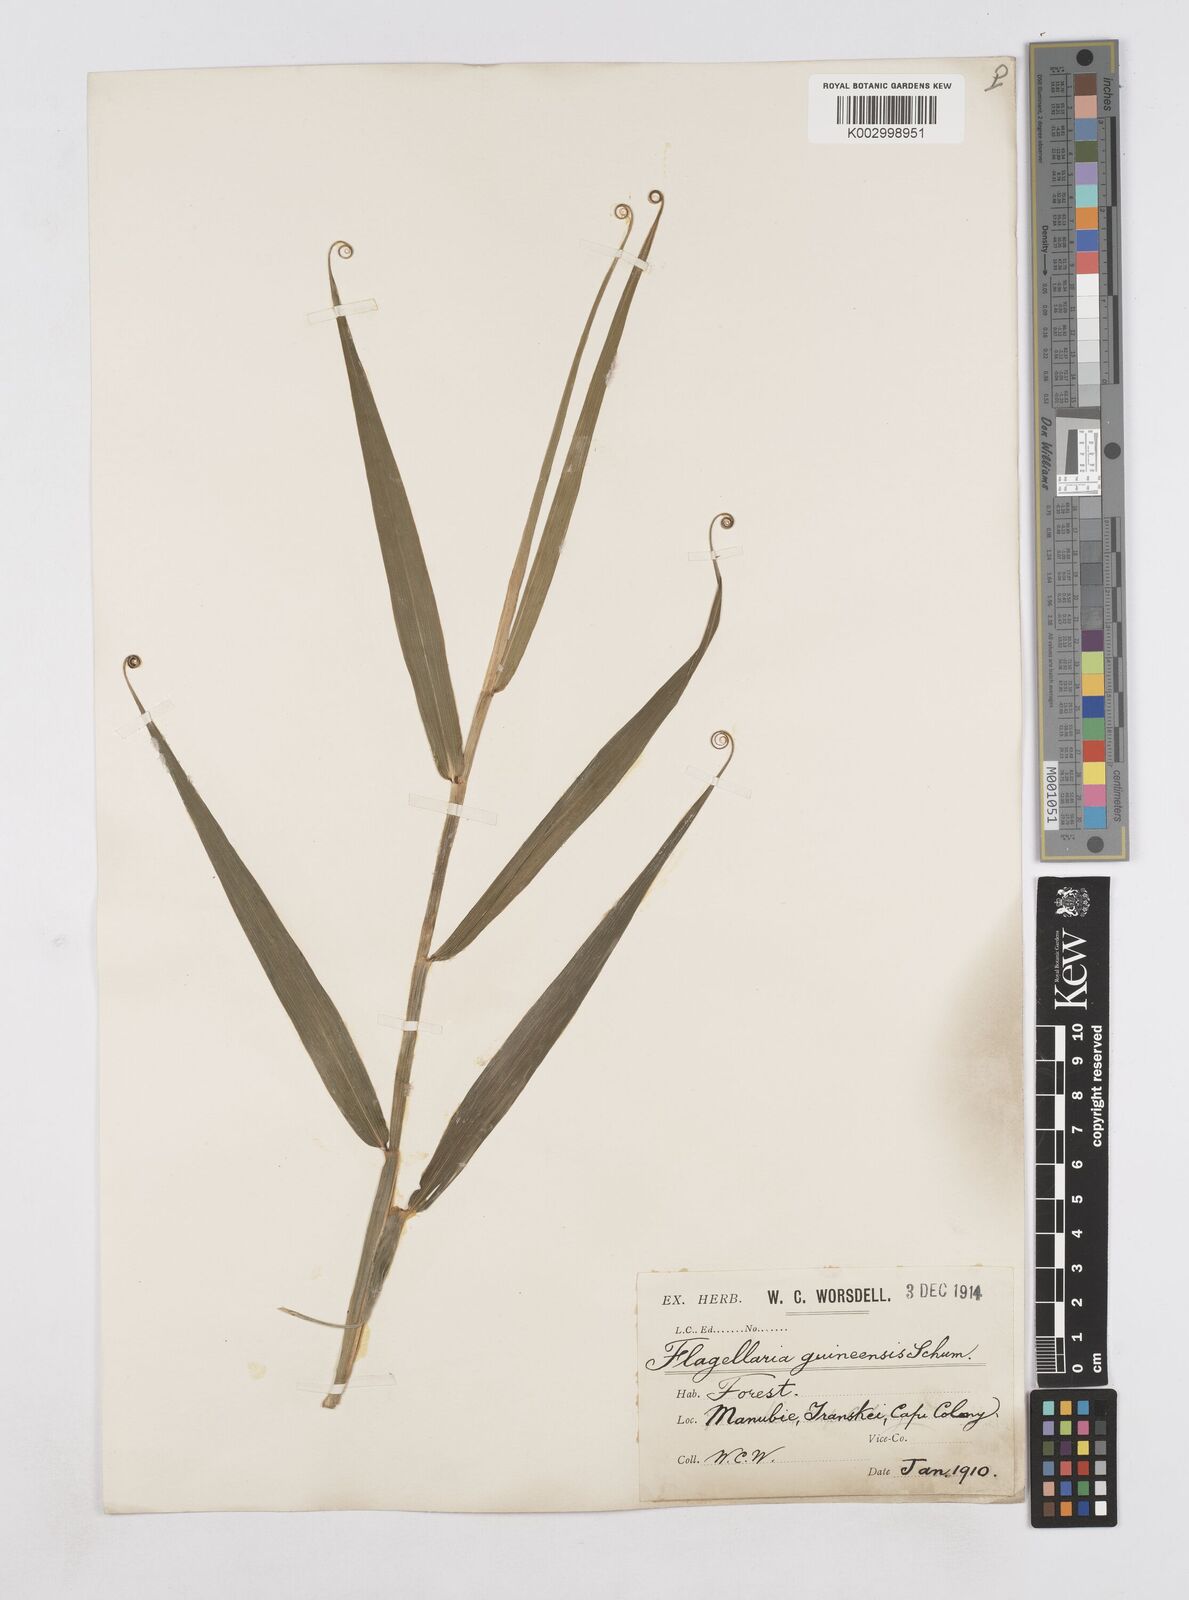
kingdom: Plantae
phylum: Tracheophyta
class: Liliopsida
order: Poales
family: Flagellariaceae
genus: Flagellaria
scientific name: Flagellaria guineensis
